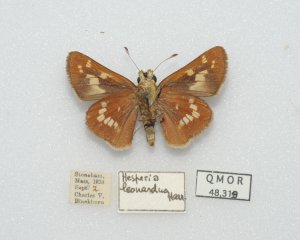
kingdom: Animalia
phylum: Arthropoda
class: Insecta
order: Lepidoptera
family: Hesperiidae
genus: Hesperia
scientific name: Hesperia leonardus
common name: Leonard's Skipper
